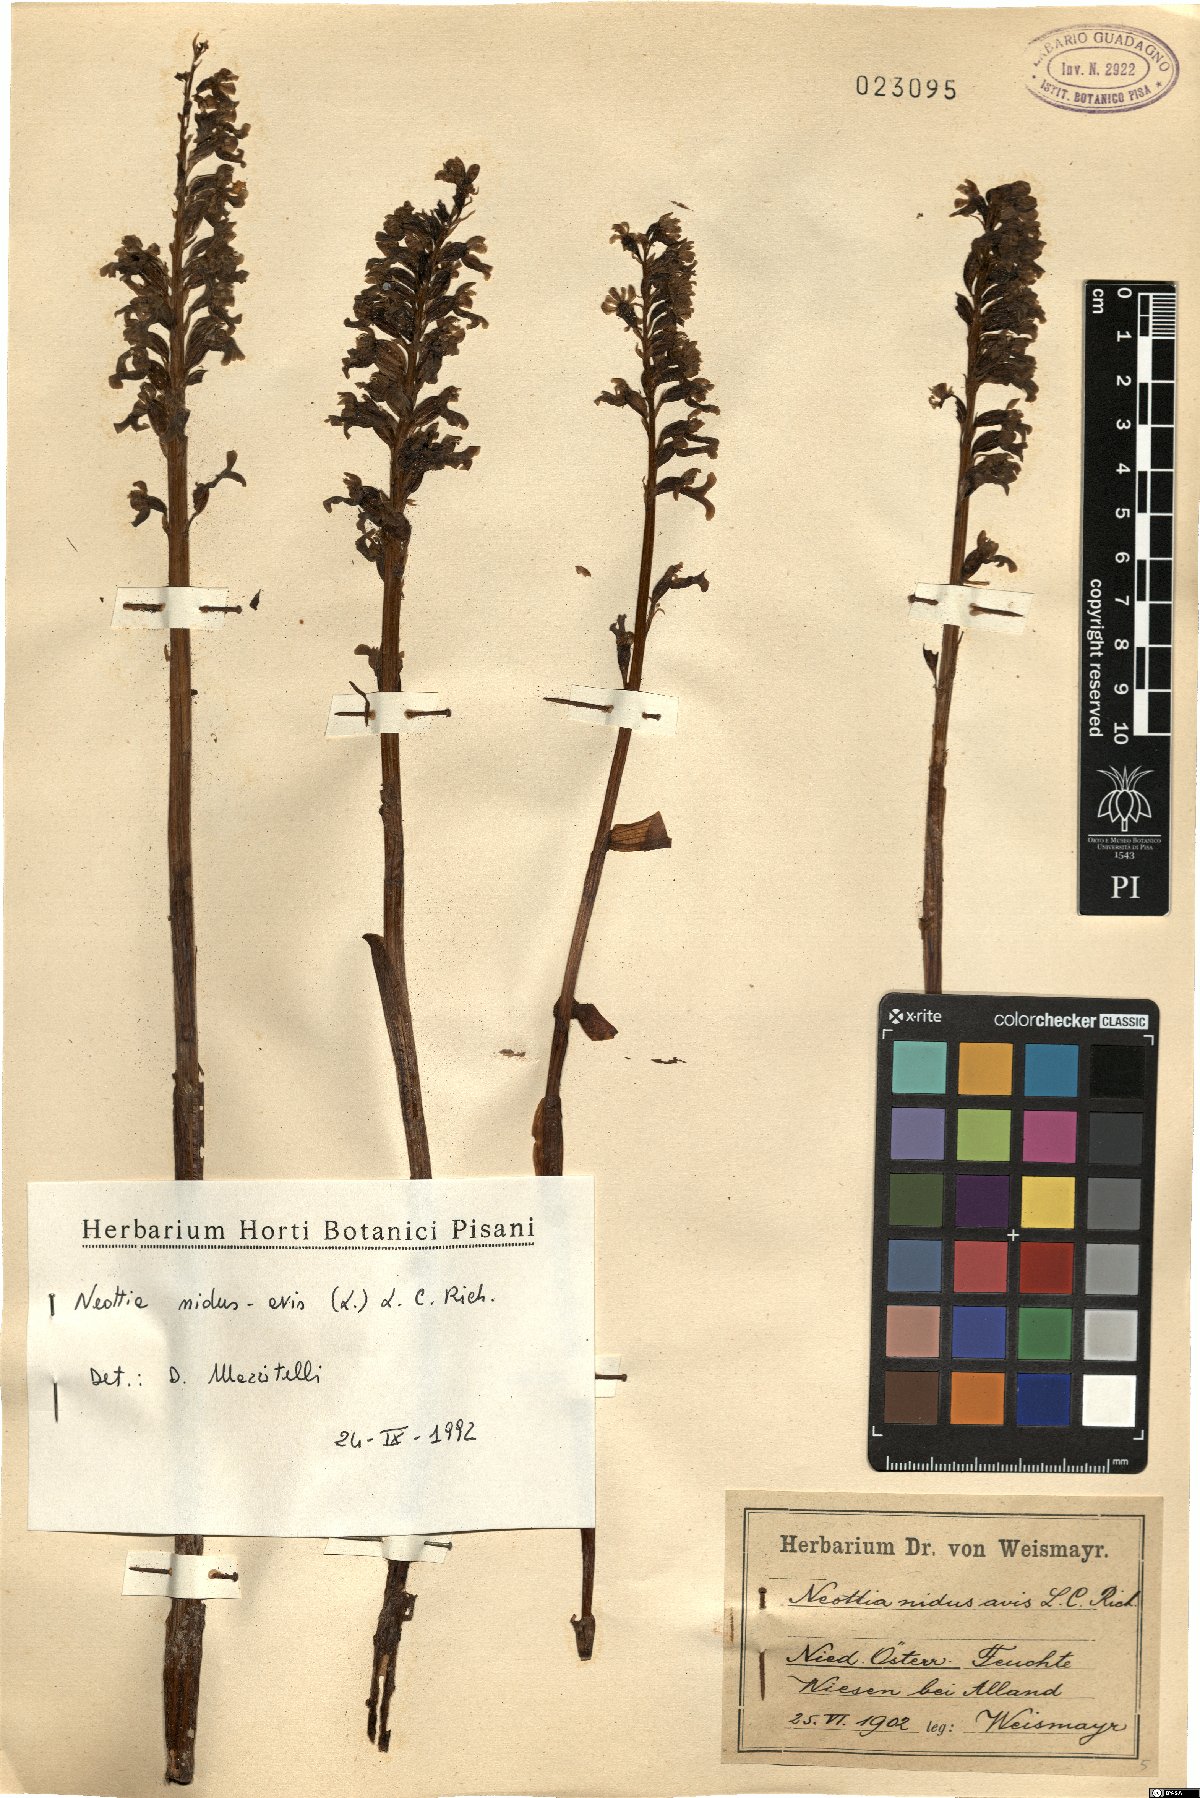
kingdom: Plantae
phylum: Tracheophyta
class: Liliopsida
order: Asparagales
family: Orchidaceae
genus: Neottia
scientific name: Neottia nidus-avis
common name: Bird's-nest orchid
